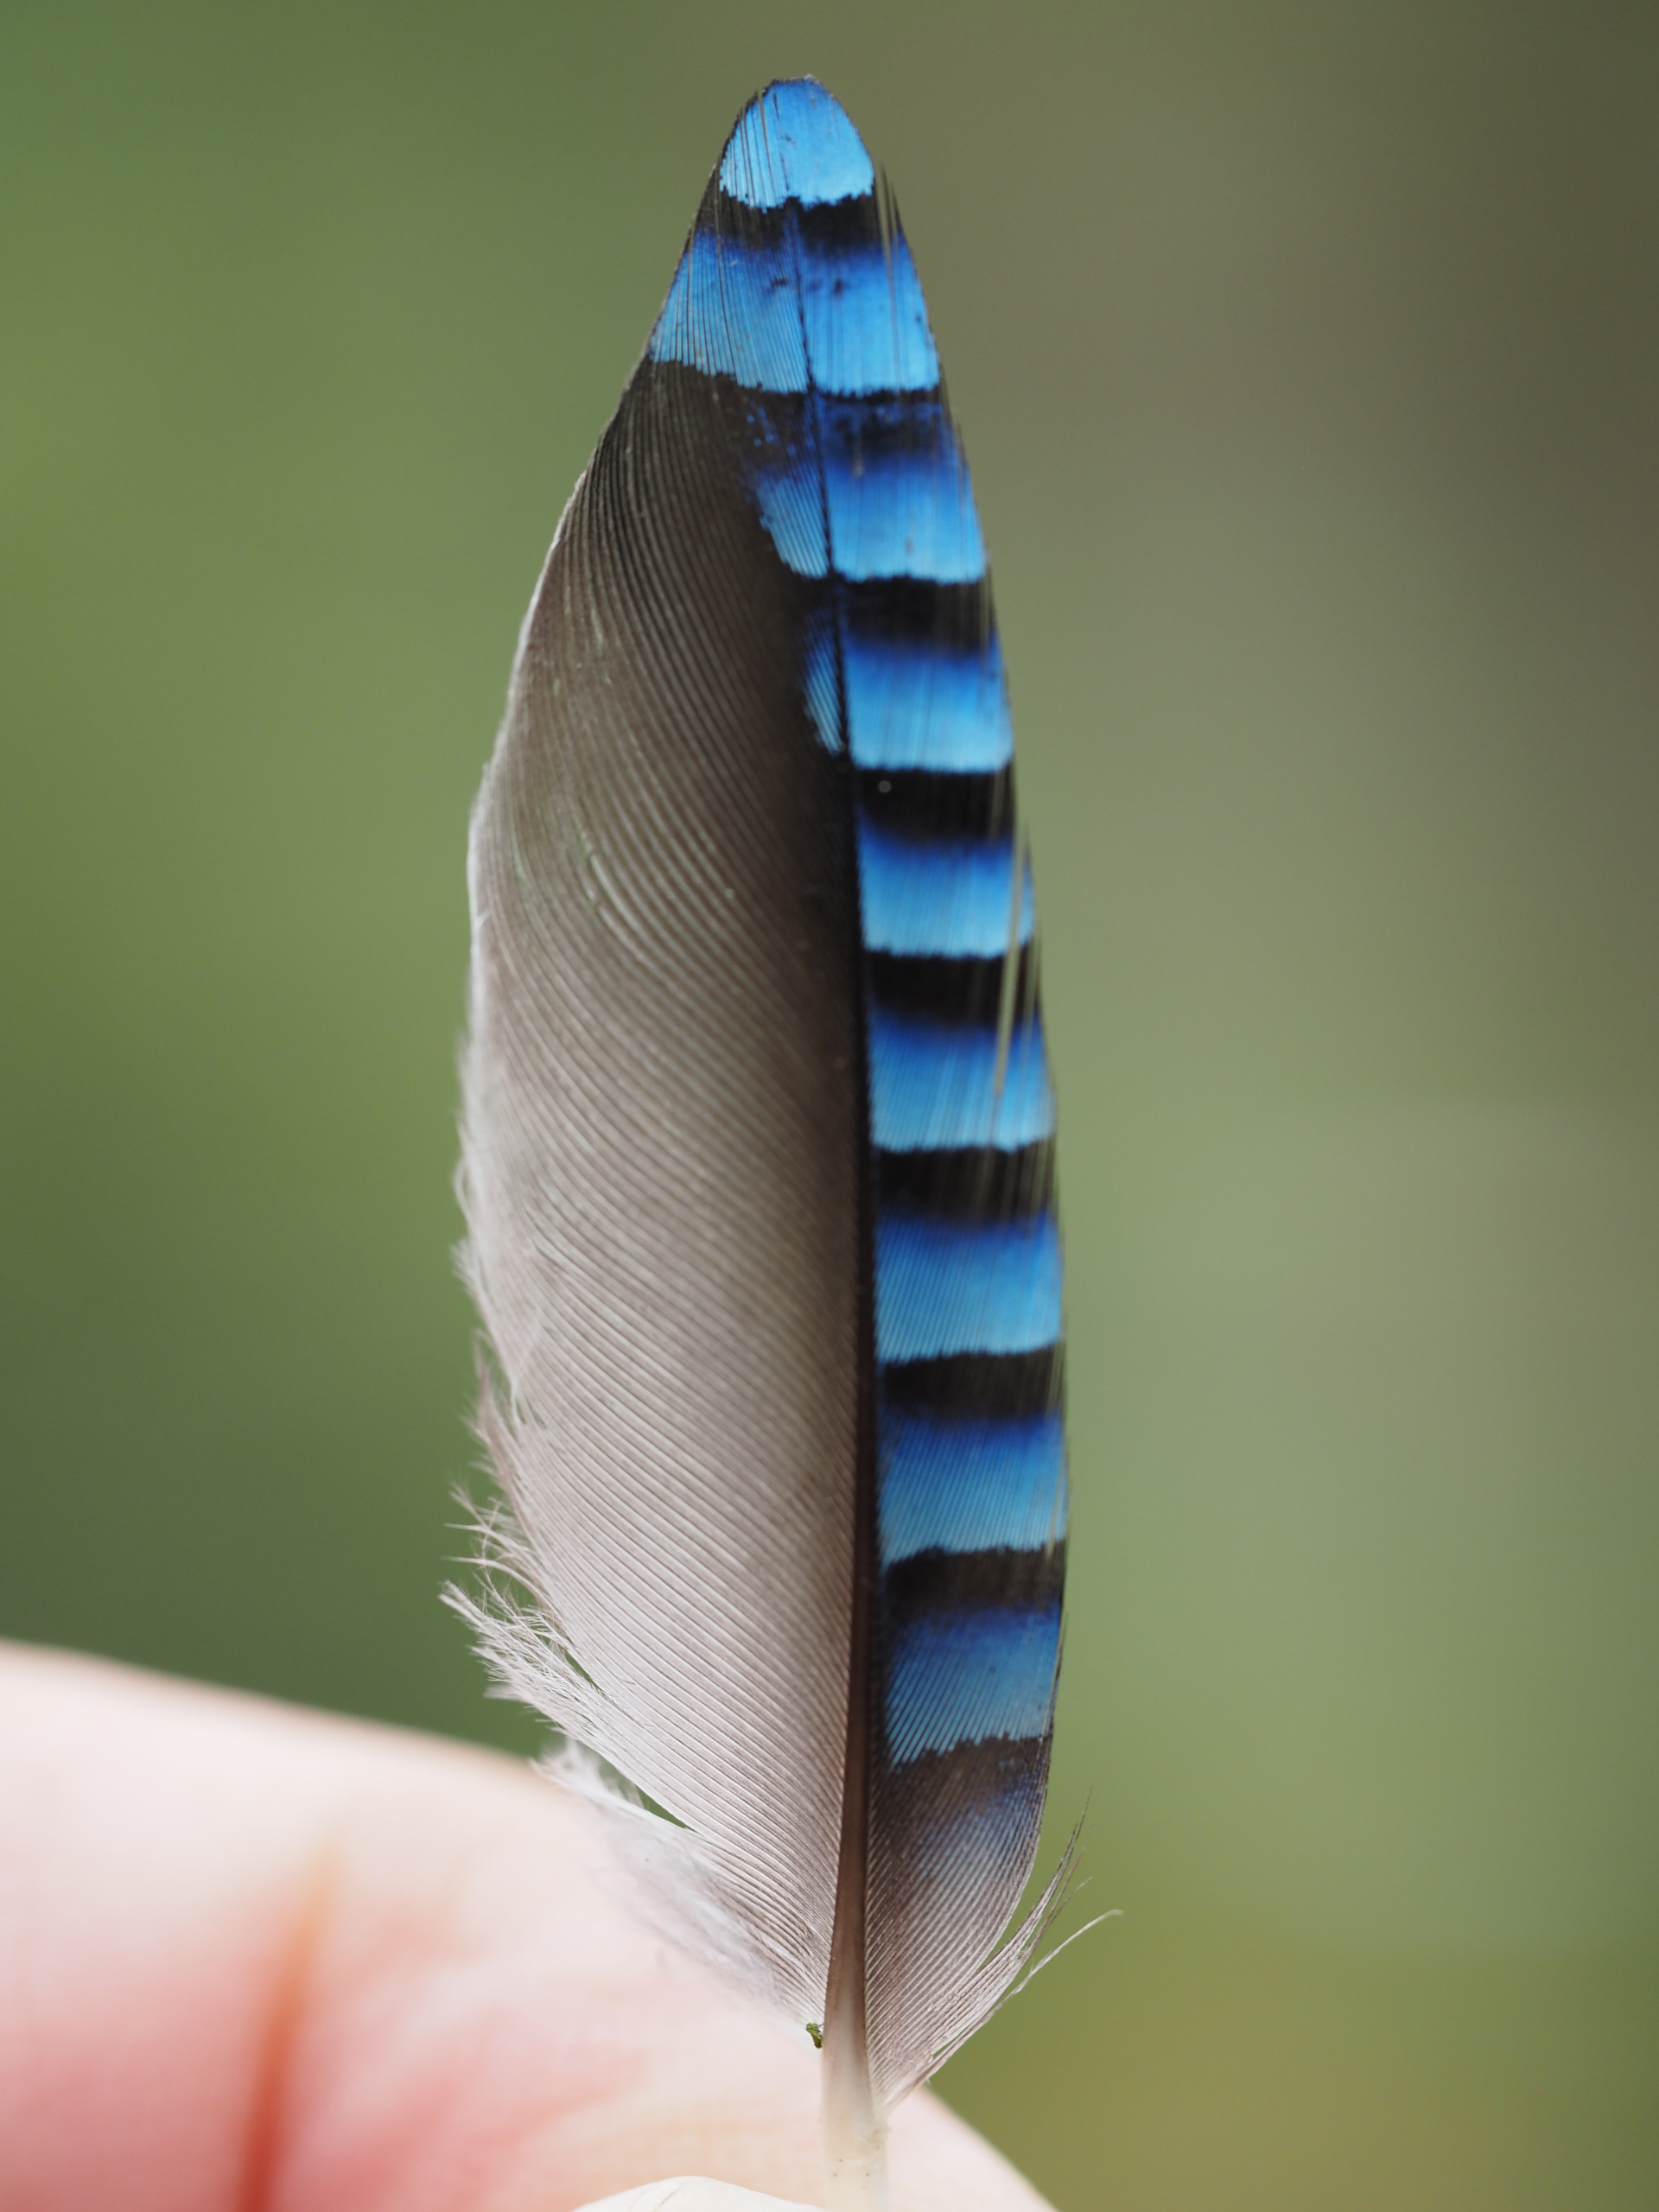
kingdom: Animalia
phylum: Chordata
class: Aves
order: Passeriformes
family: Corvidae
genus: Garrulus
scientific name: Garrulus glandarius
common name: Skovskade
